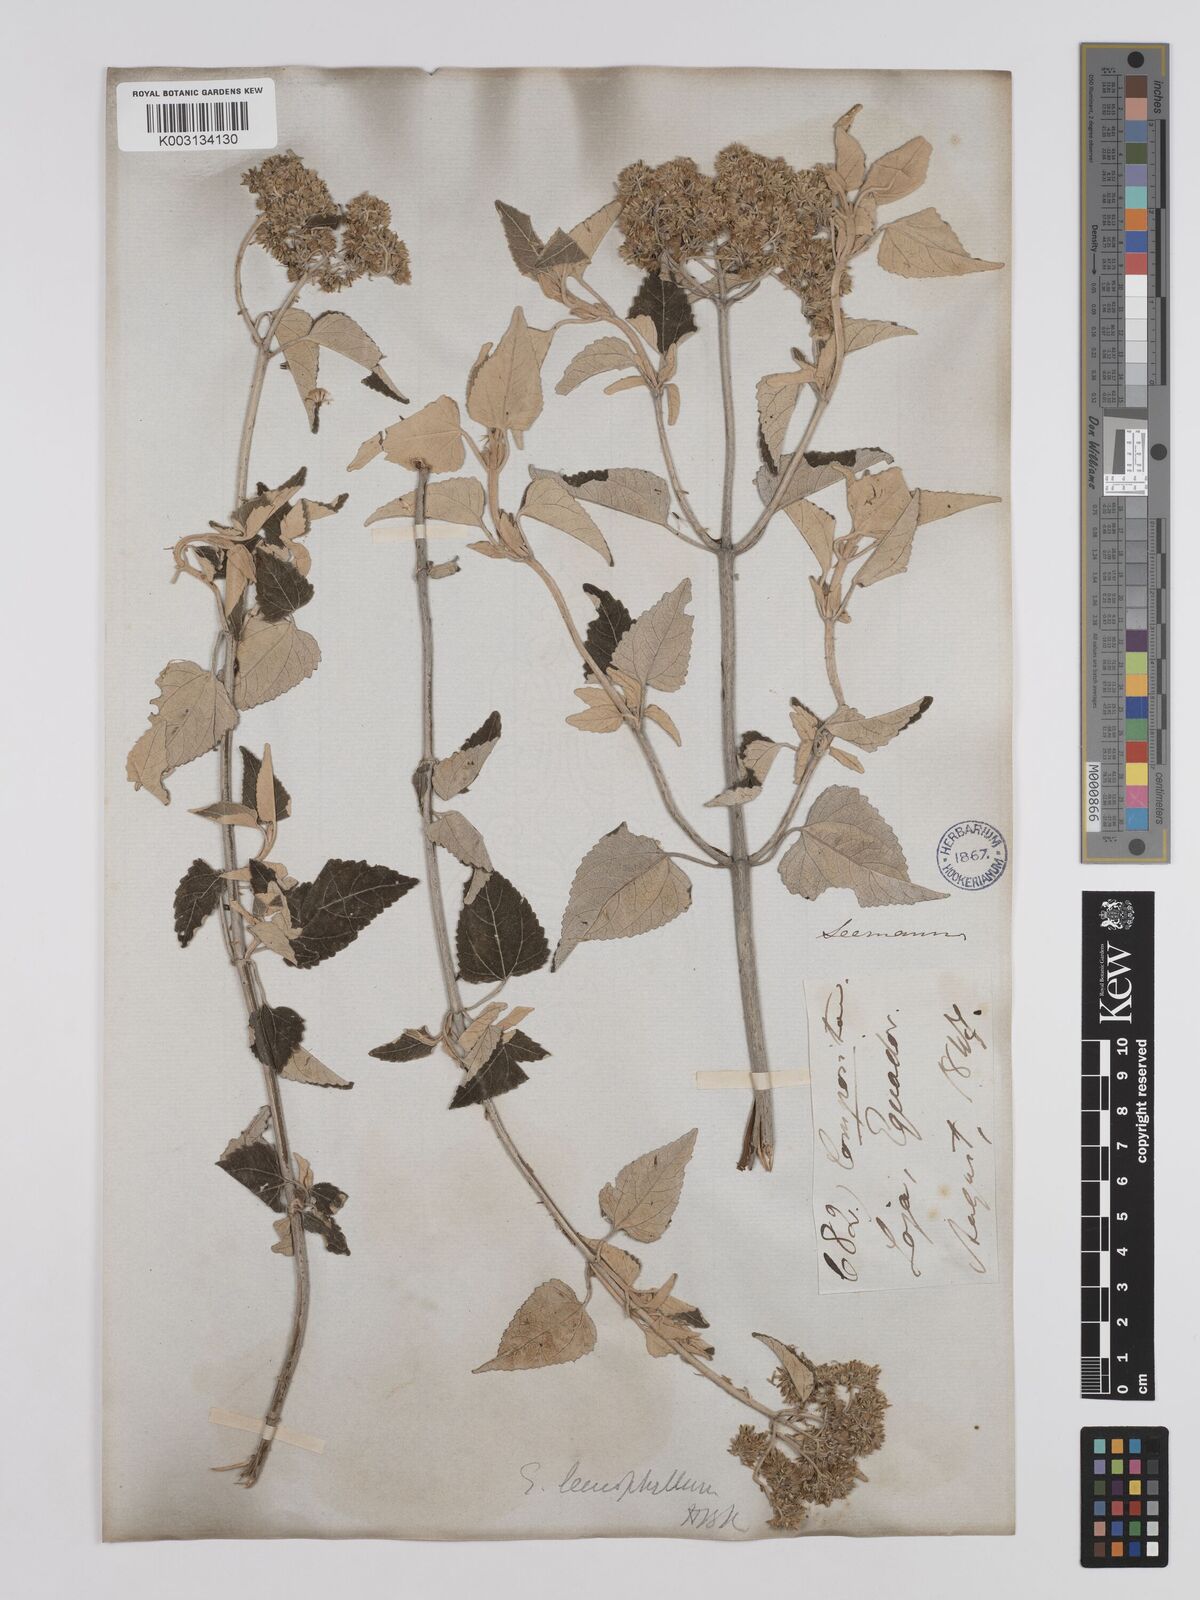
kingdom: Plantae
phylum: Tracheophyta
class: Magnoliopsida
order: Asterales
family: Asteraceae
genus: Cronquistianthus
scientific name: Cronquistianthus leucophyllus
